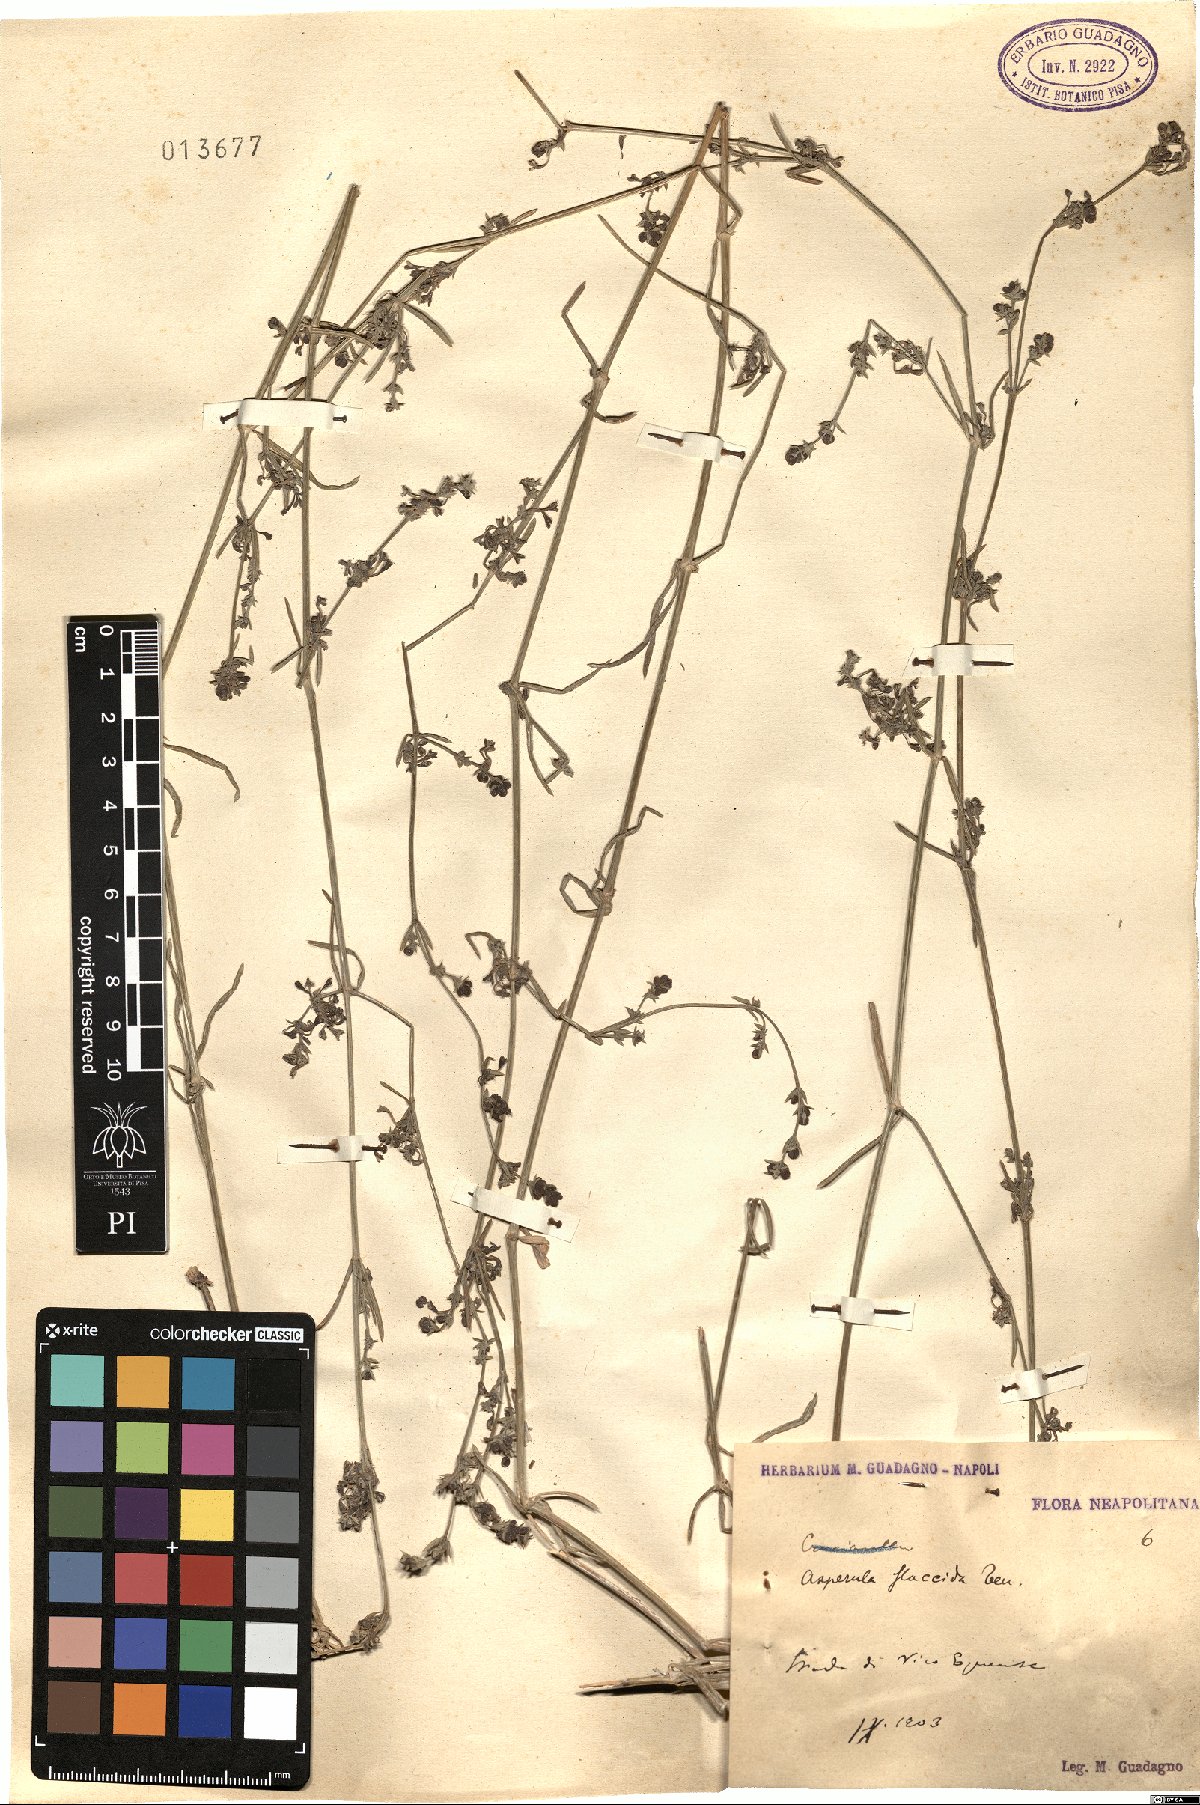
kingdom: Plantae
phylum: Tracheophyta
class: Magnoliopsida
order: Gentianales
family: Rubiaceae
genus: Cynanchica
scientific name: Cynanchica aristata
